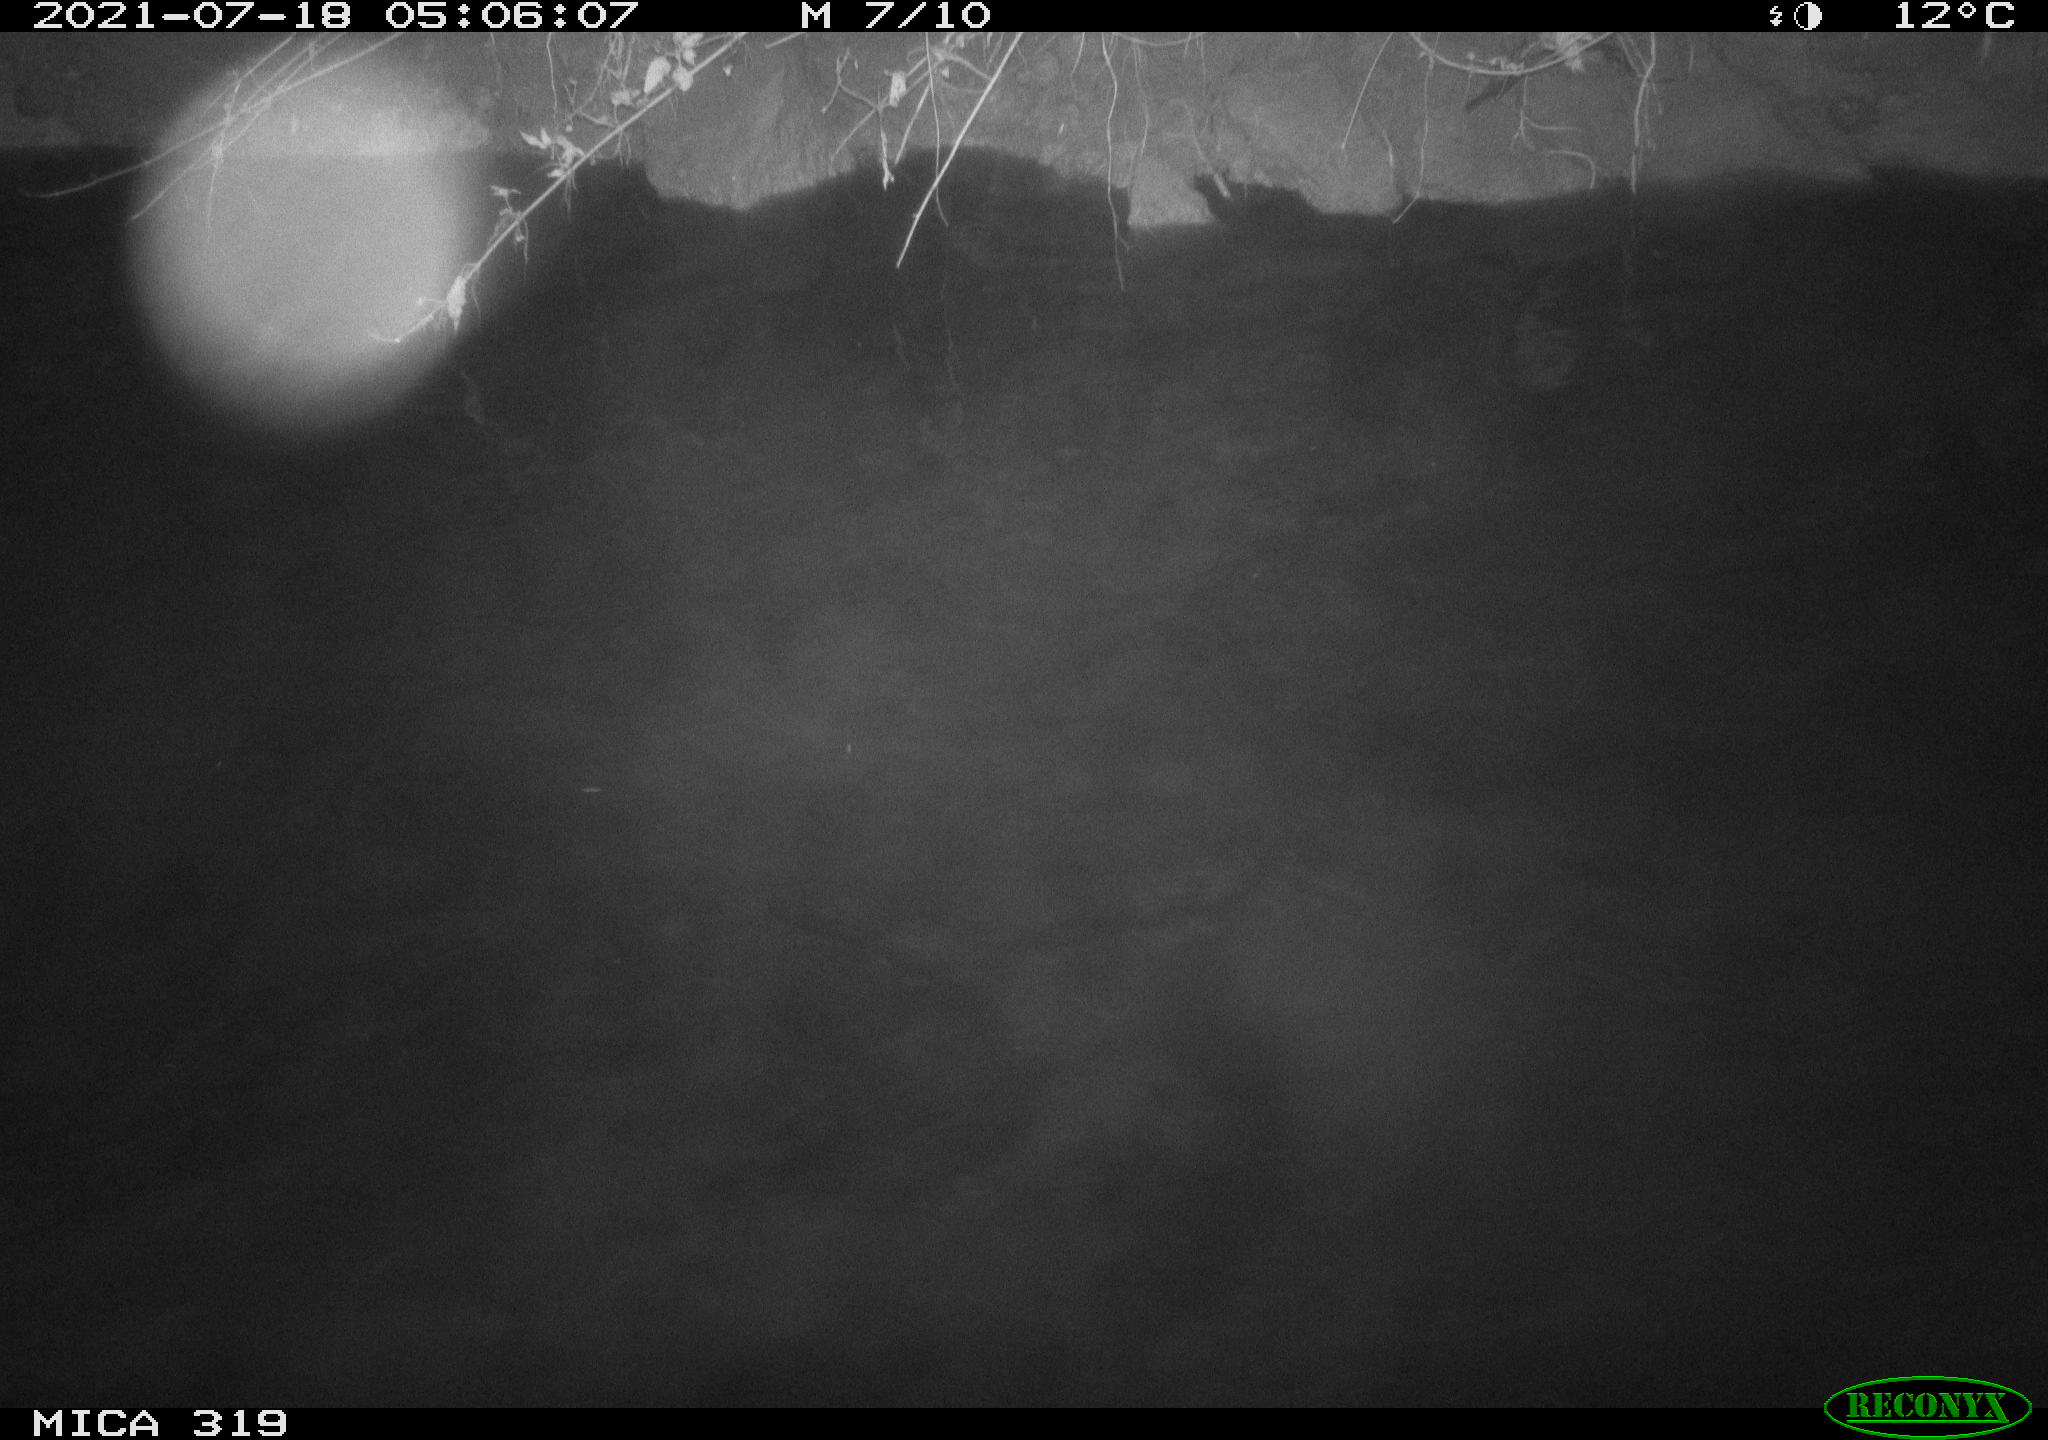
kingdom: Animalia
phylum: Chordata
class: Aves
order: Anseriformes
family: Anatidae
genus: Anas
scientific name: Anas platyrhynchos
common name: Mallard
